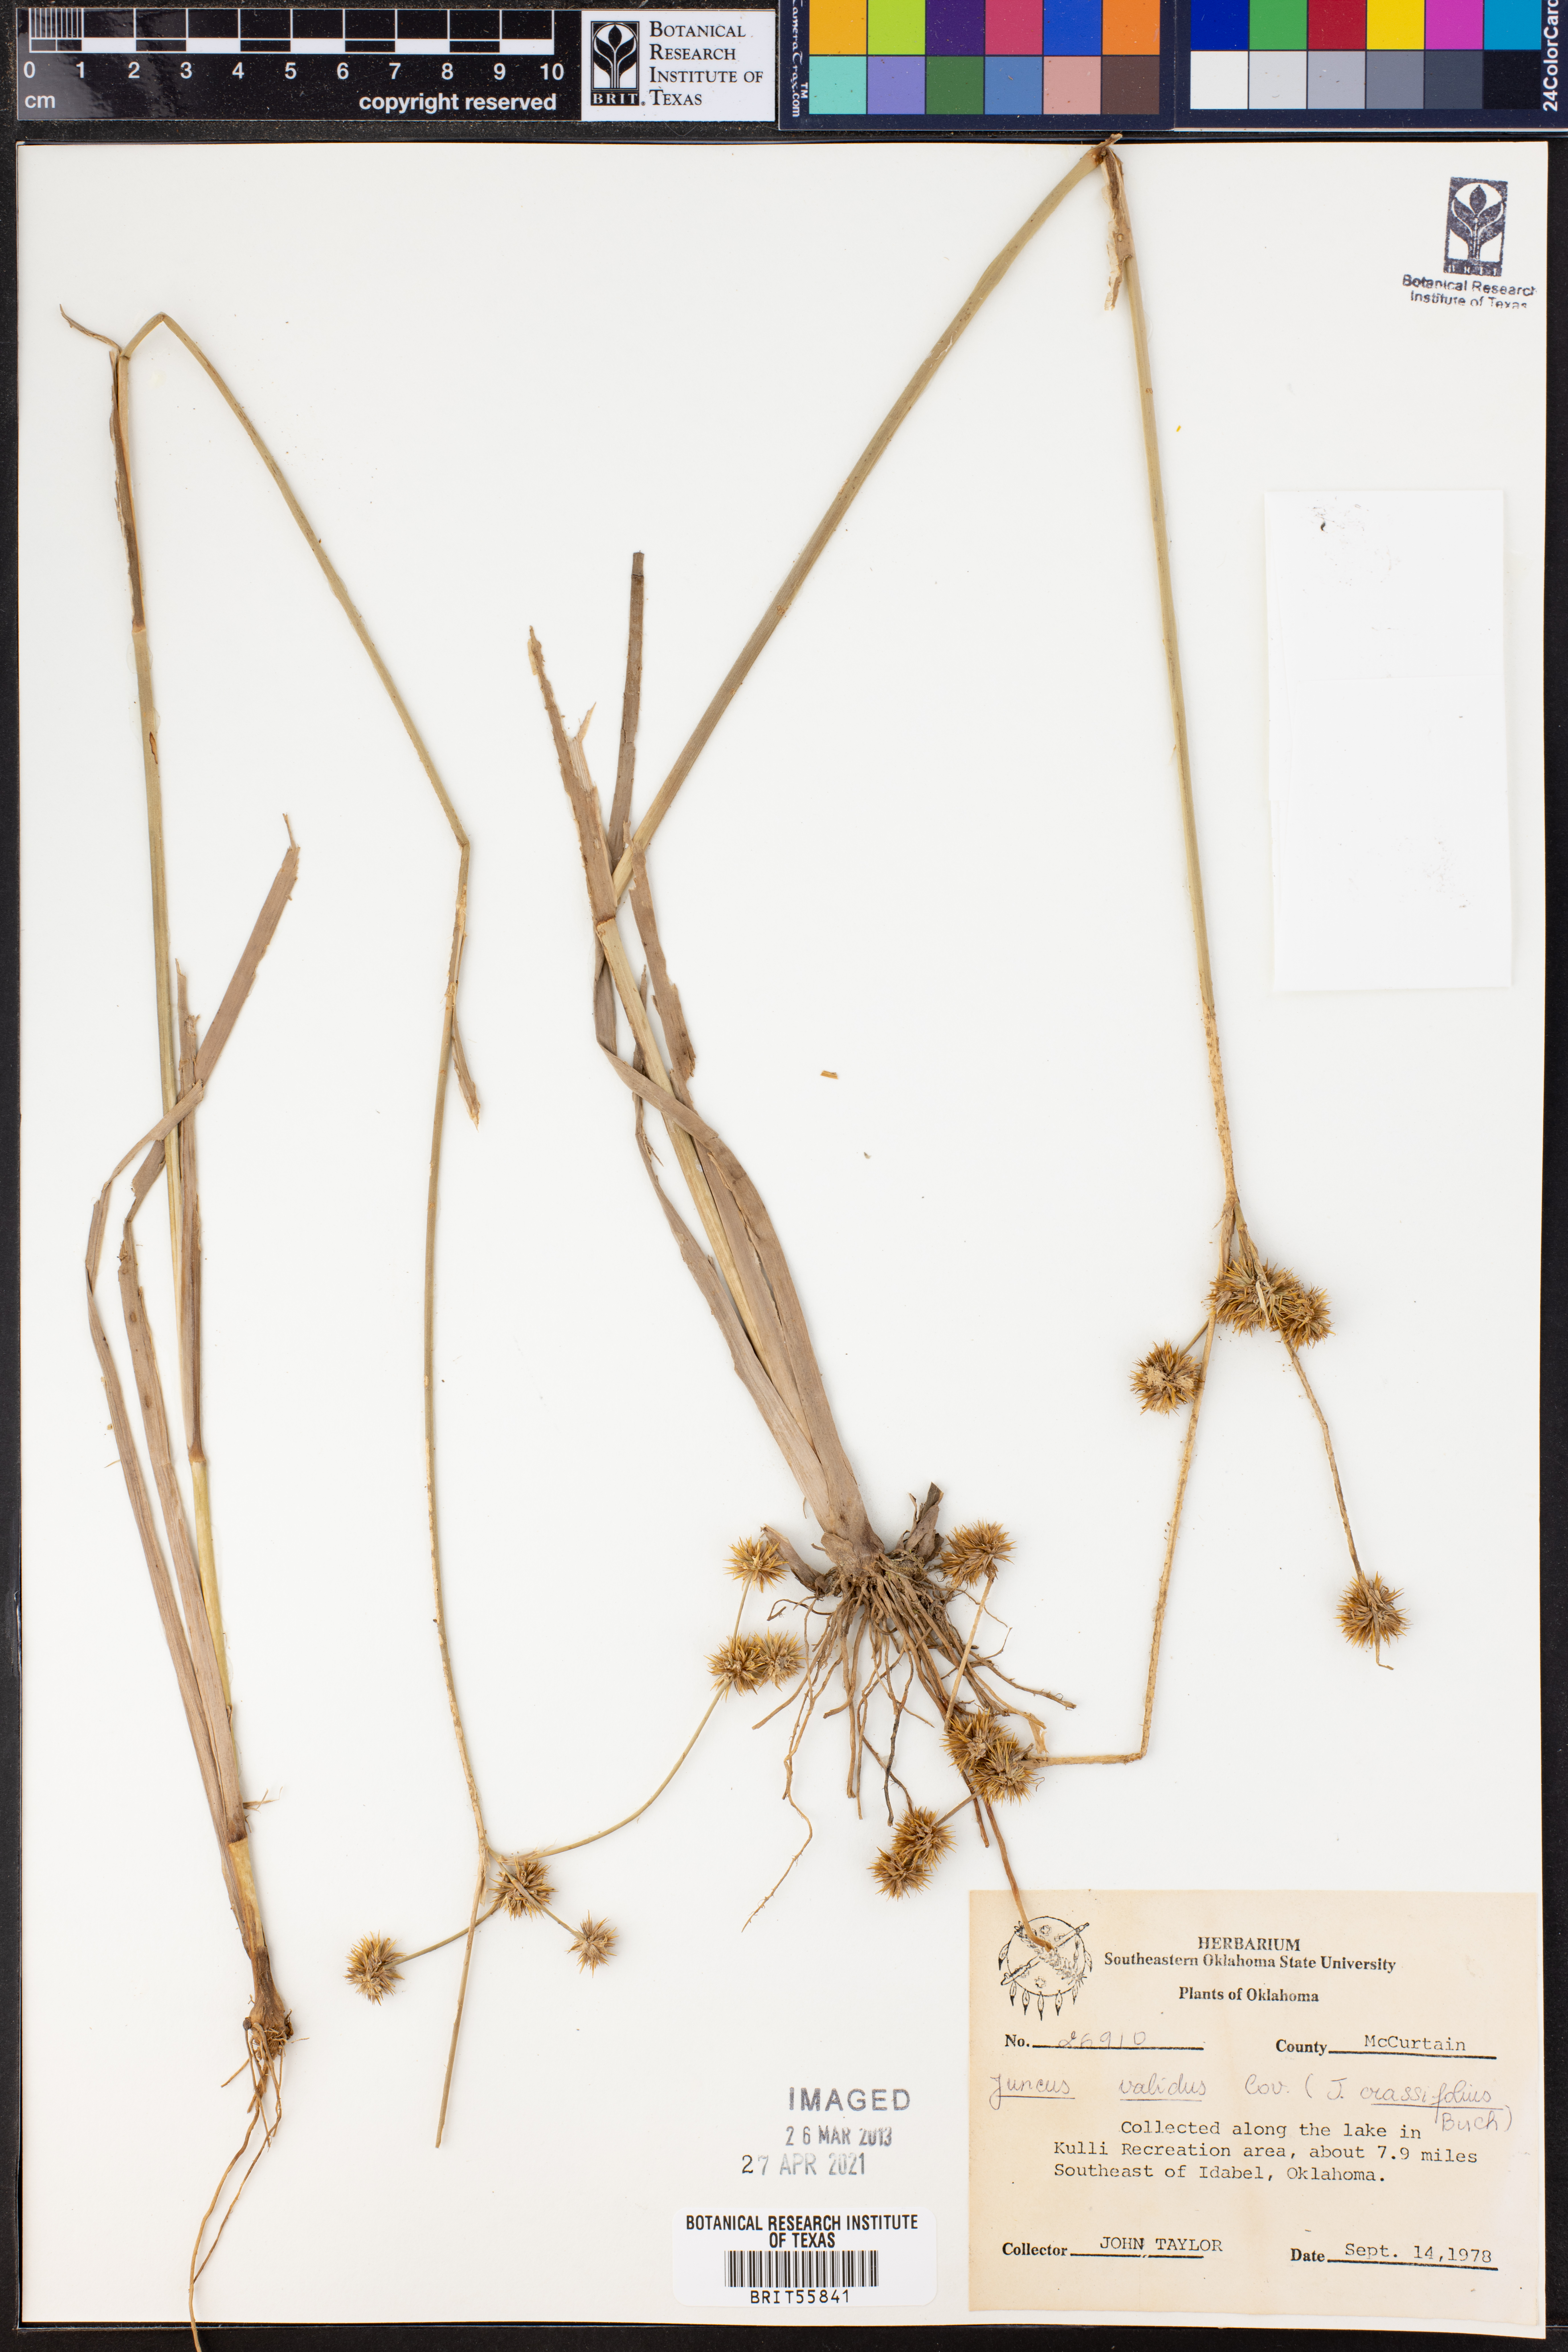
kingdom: Plantae
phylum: Tracheophyta
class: Liliopsida
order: Poales
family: Juncaceae
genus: Juncus
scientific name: Juncus validus
